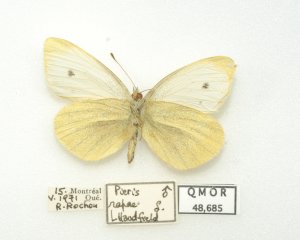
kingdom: Animalia
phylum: Arthropoda
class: Insecta
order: Lepidoptera
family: Pieridae
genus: Pieris
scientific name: Pieris rapae
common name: Cabbage White
